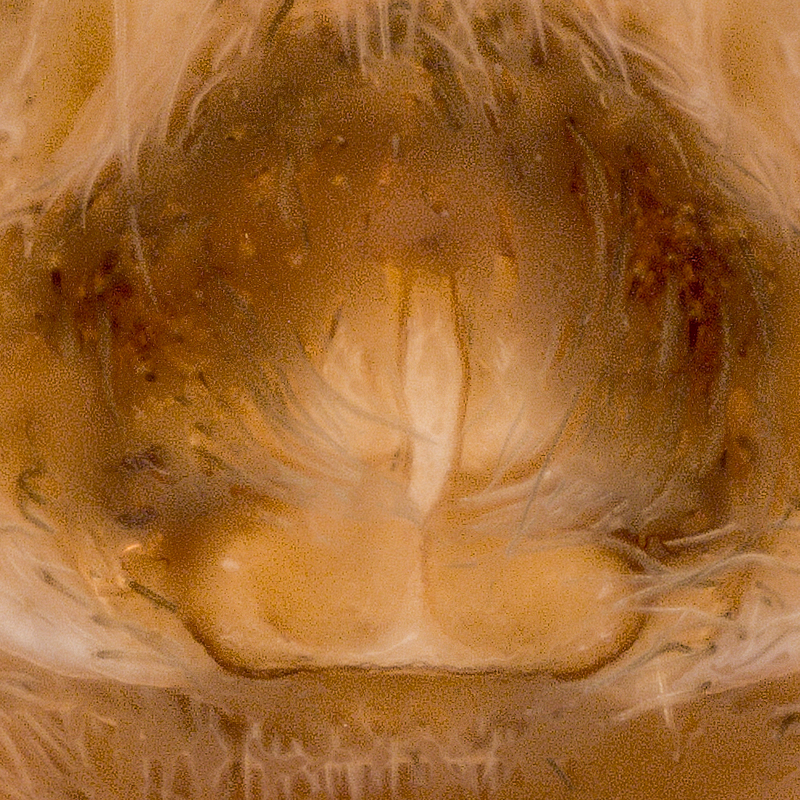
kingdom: Animalia
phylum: Arthropoda
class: Arachnida
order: Araneae
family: Lycosidae
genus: Pardosa
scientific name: Pardosa lugubris
